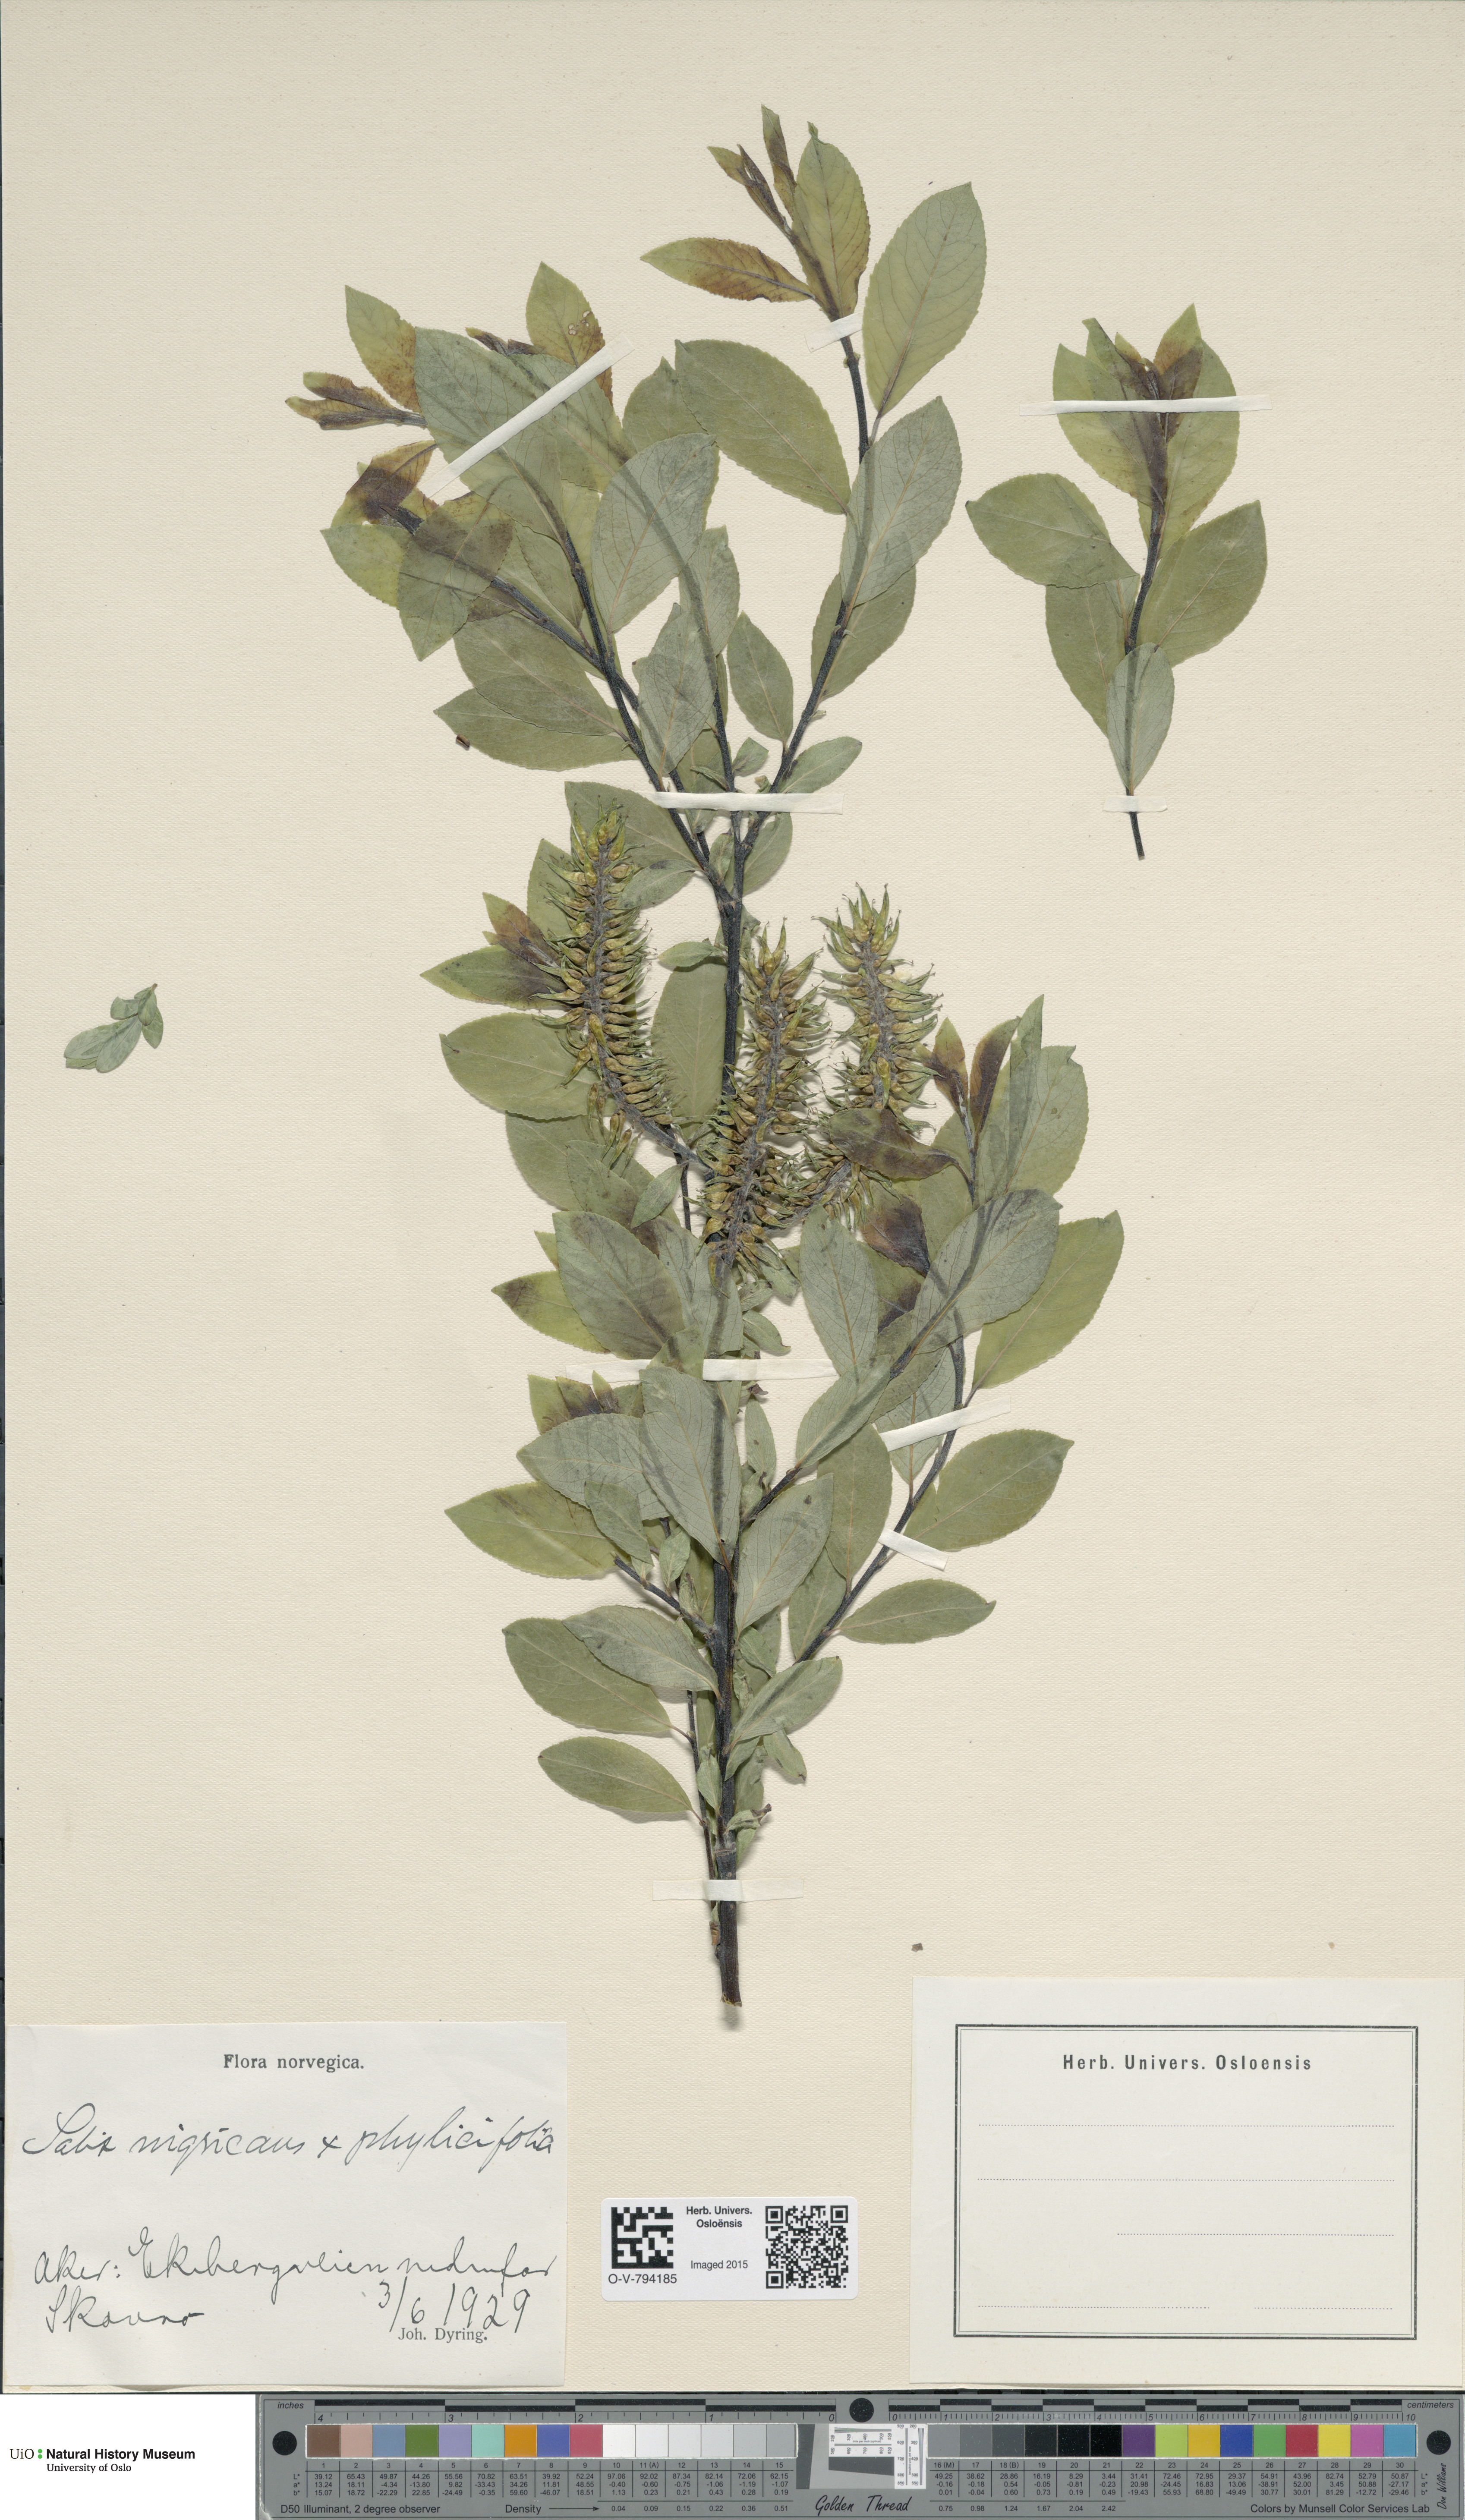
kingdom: Plantae
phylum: Tracheophyta
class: Magnoliopsida
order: Malpighiales
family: Salicaceae
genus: Salix
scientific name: Salix
